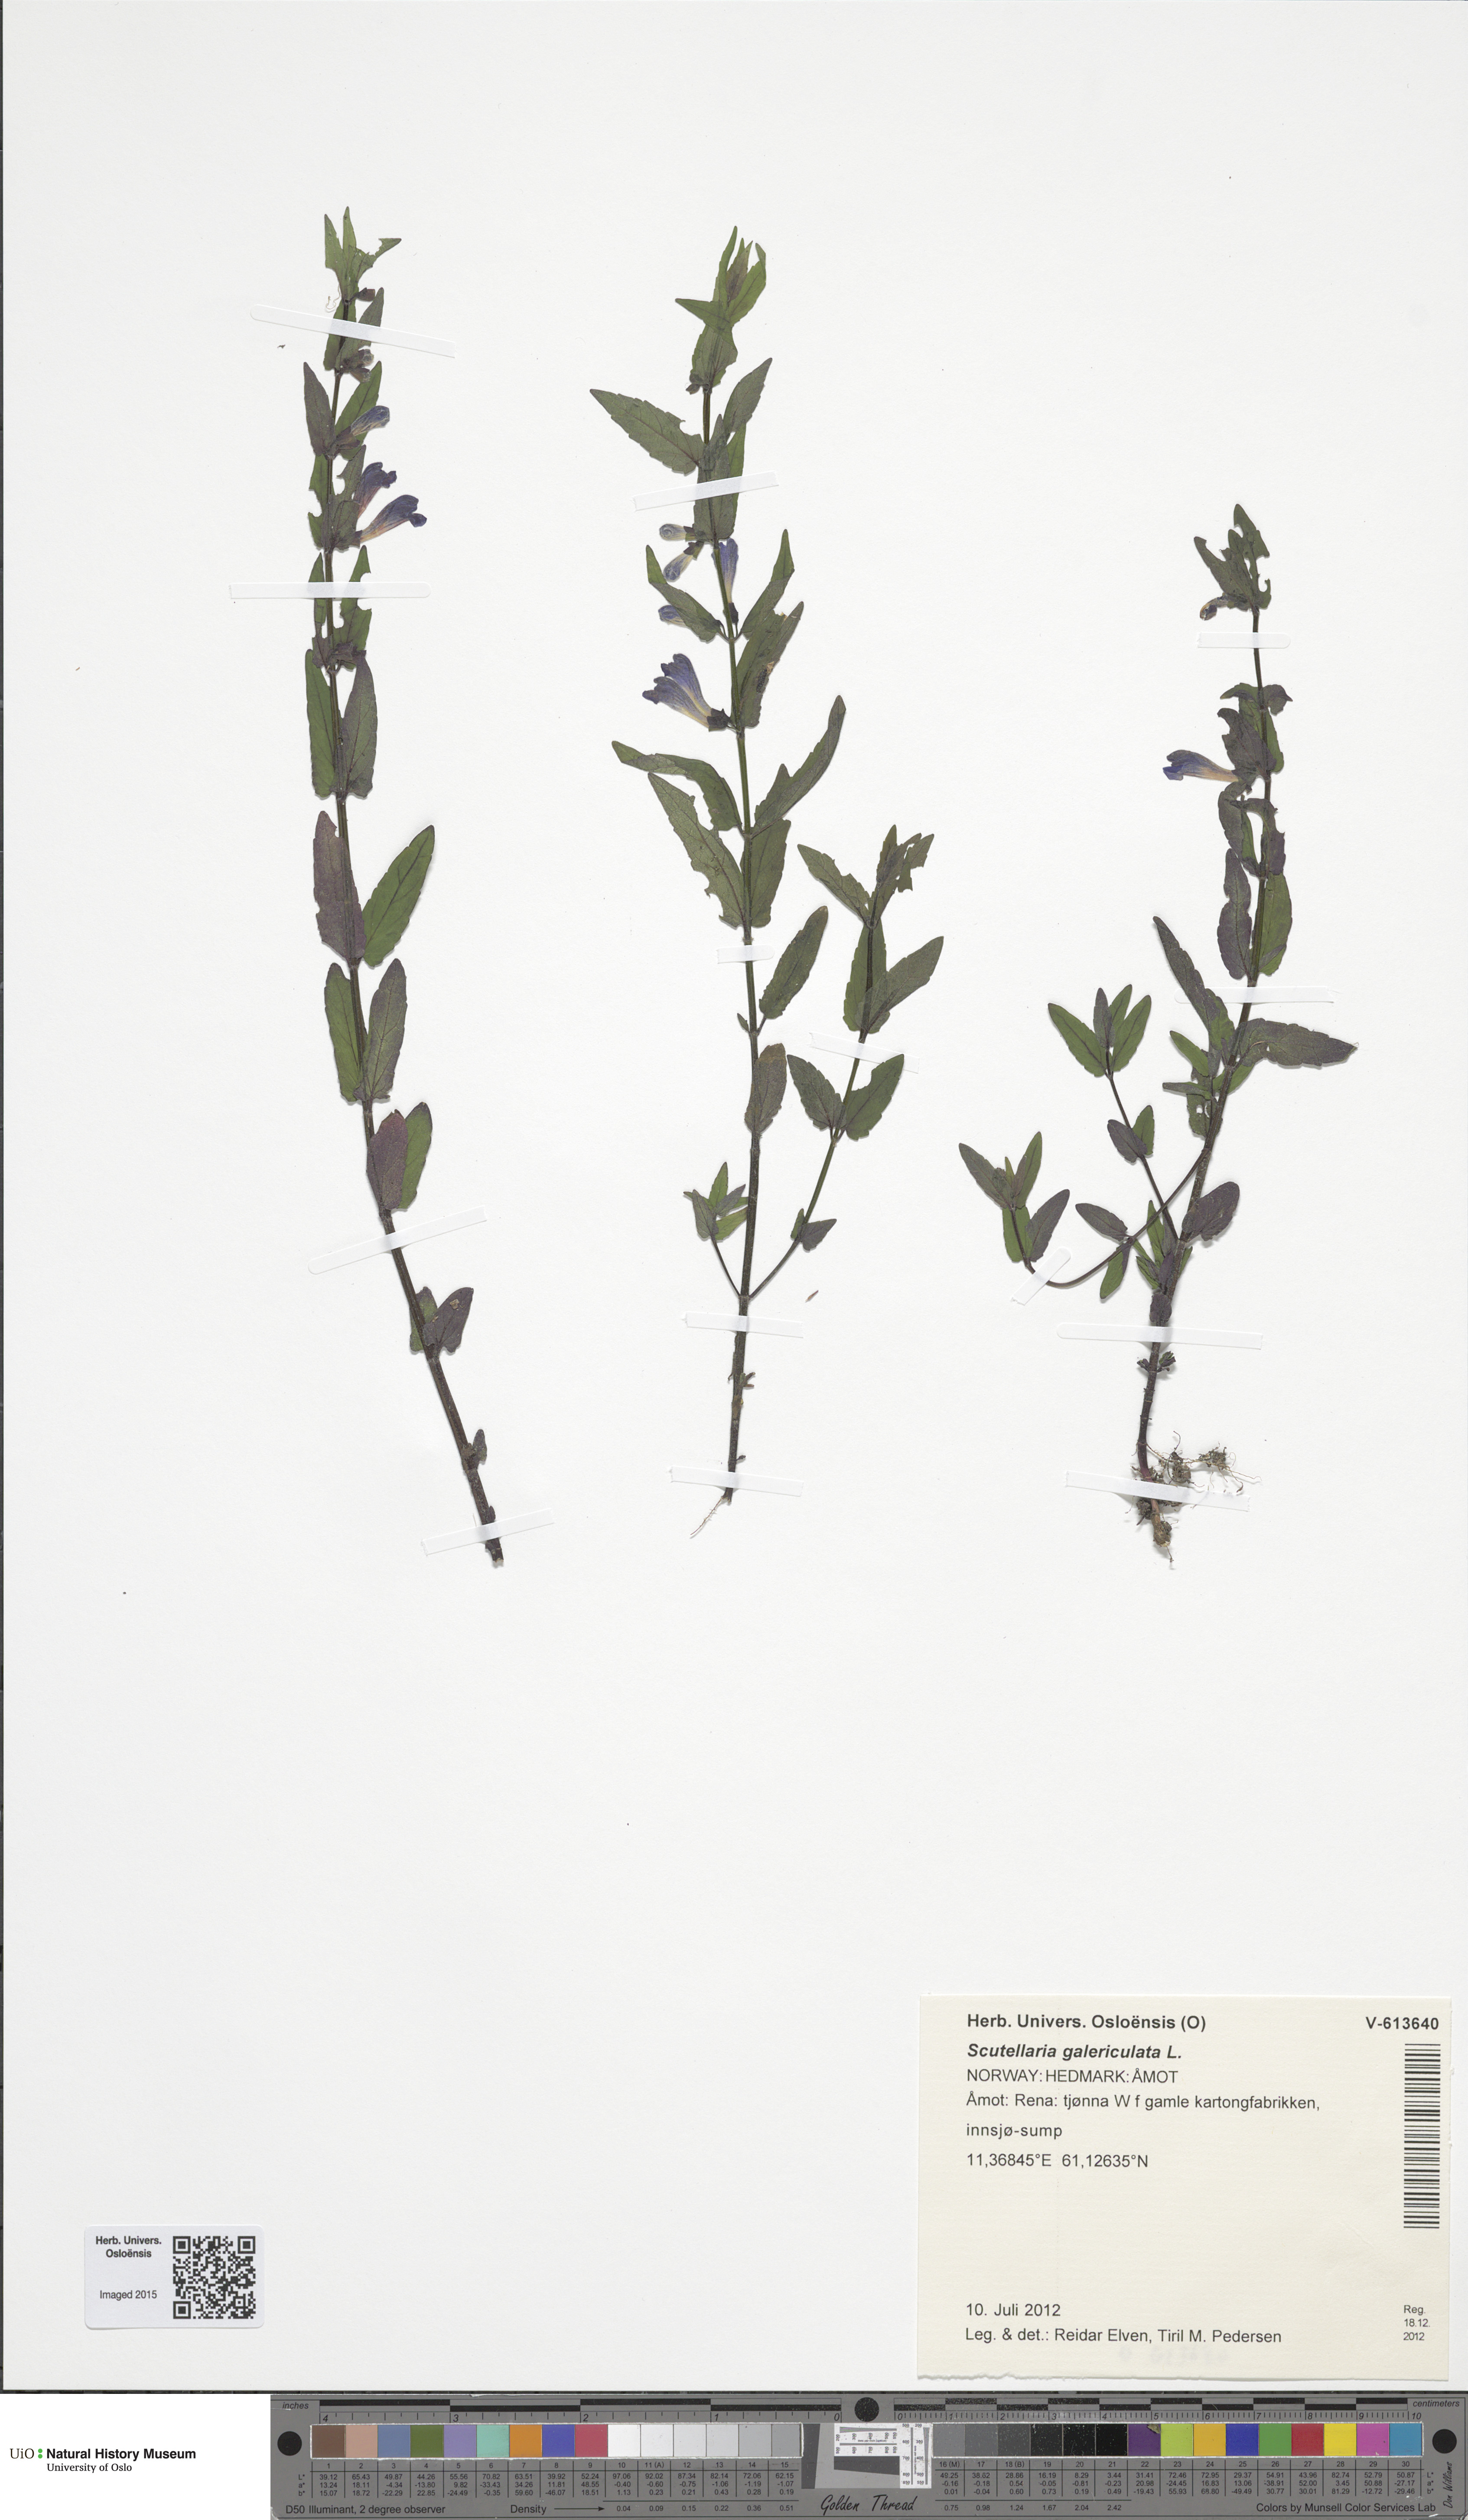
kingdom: Plantae
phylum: Tracheophyta
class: Magnoliopsida
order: Lamiales
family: Lamiaceae
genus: Scutellaria
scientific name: Scutellaria galericulata
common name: Skullcap
